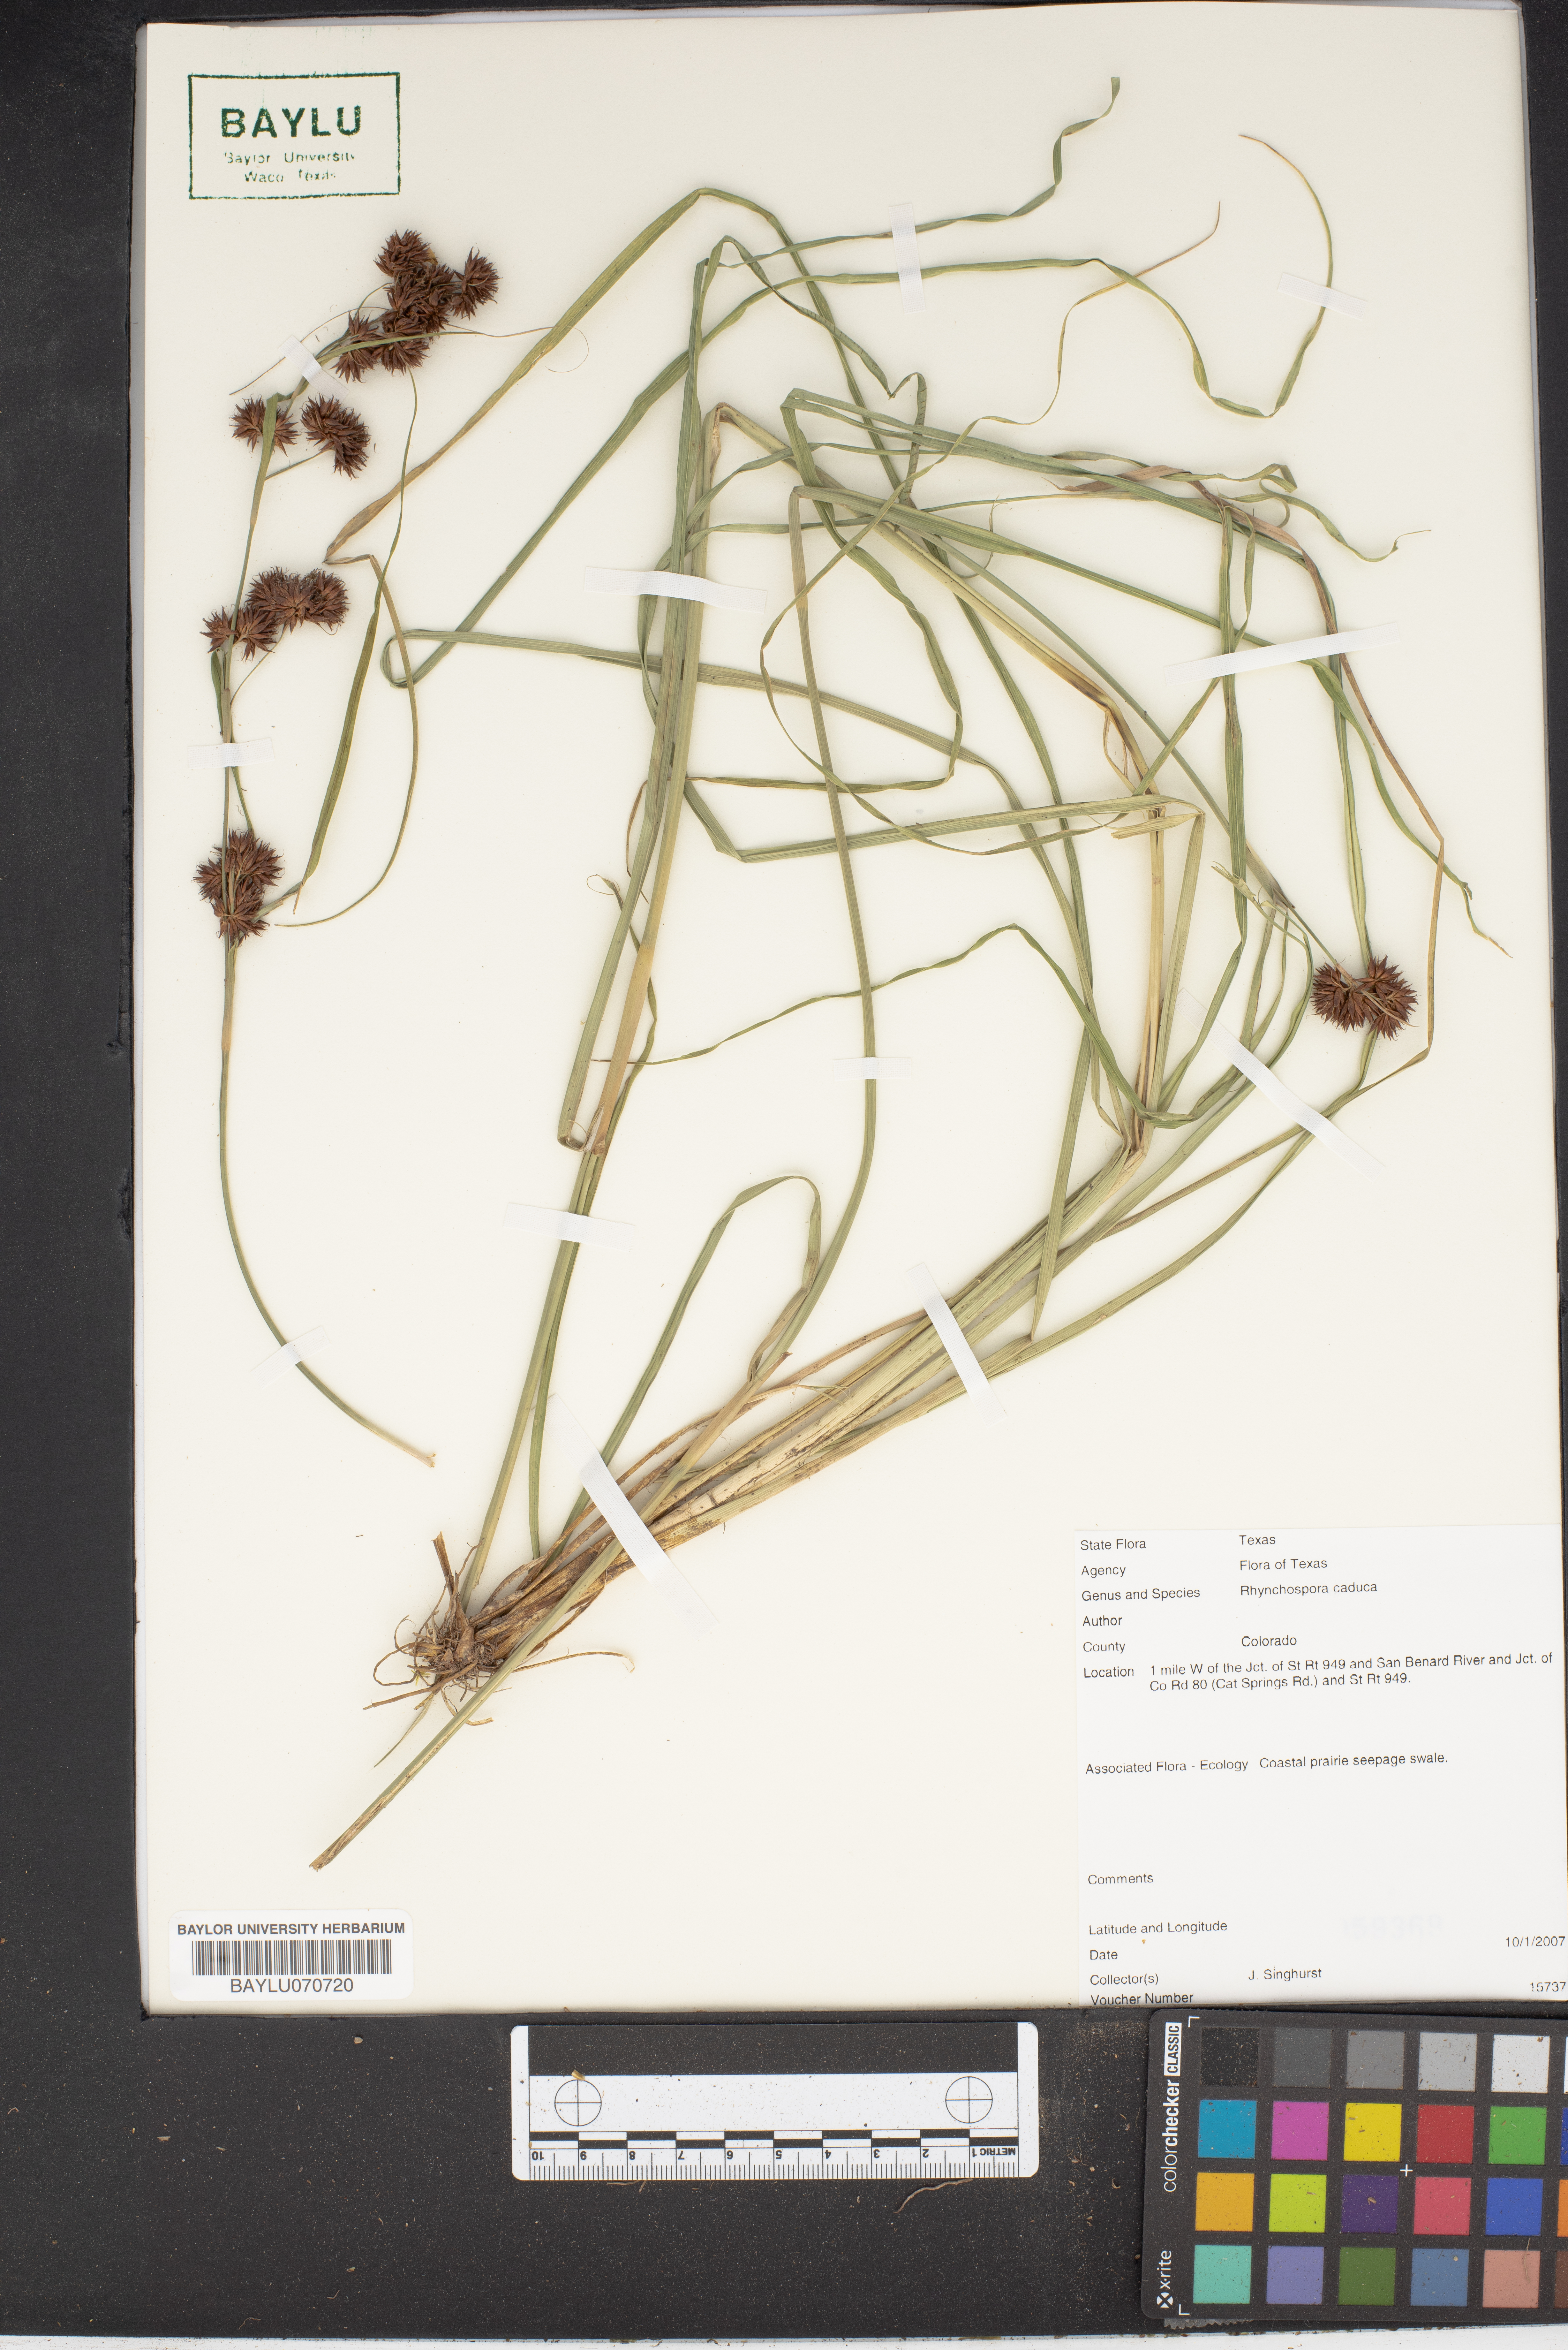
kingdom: Plantae
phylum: Tracheophyta
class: Liliopsida
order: Poales
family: Cyperaceae
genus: Rhynchospora
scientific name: Rhynchospora caduca
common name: Anglestem beaksedge
